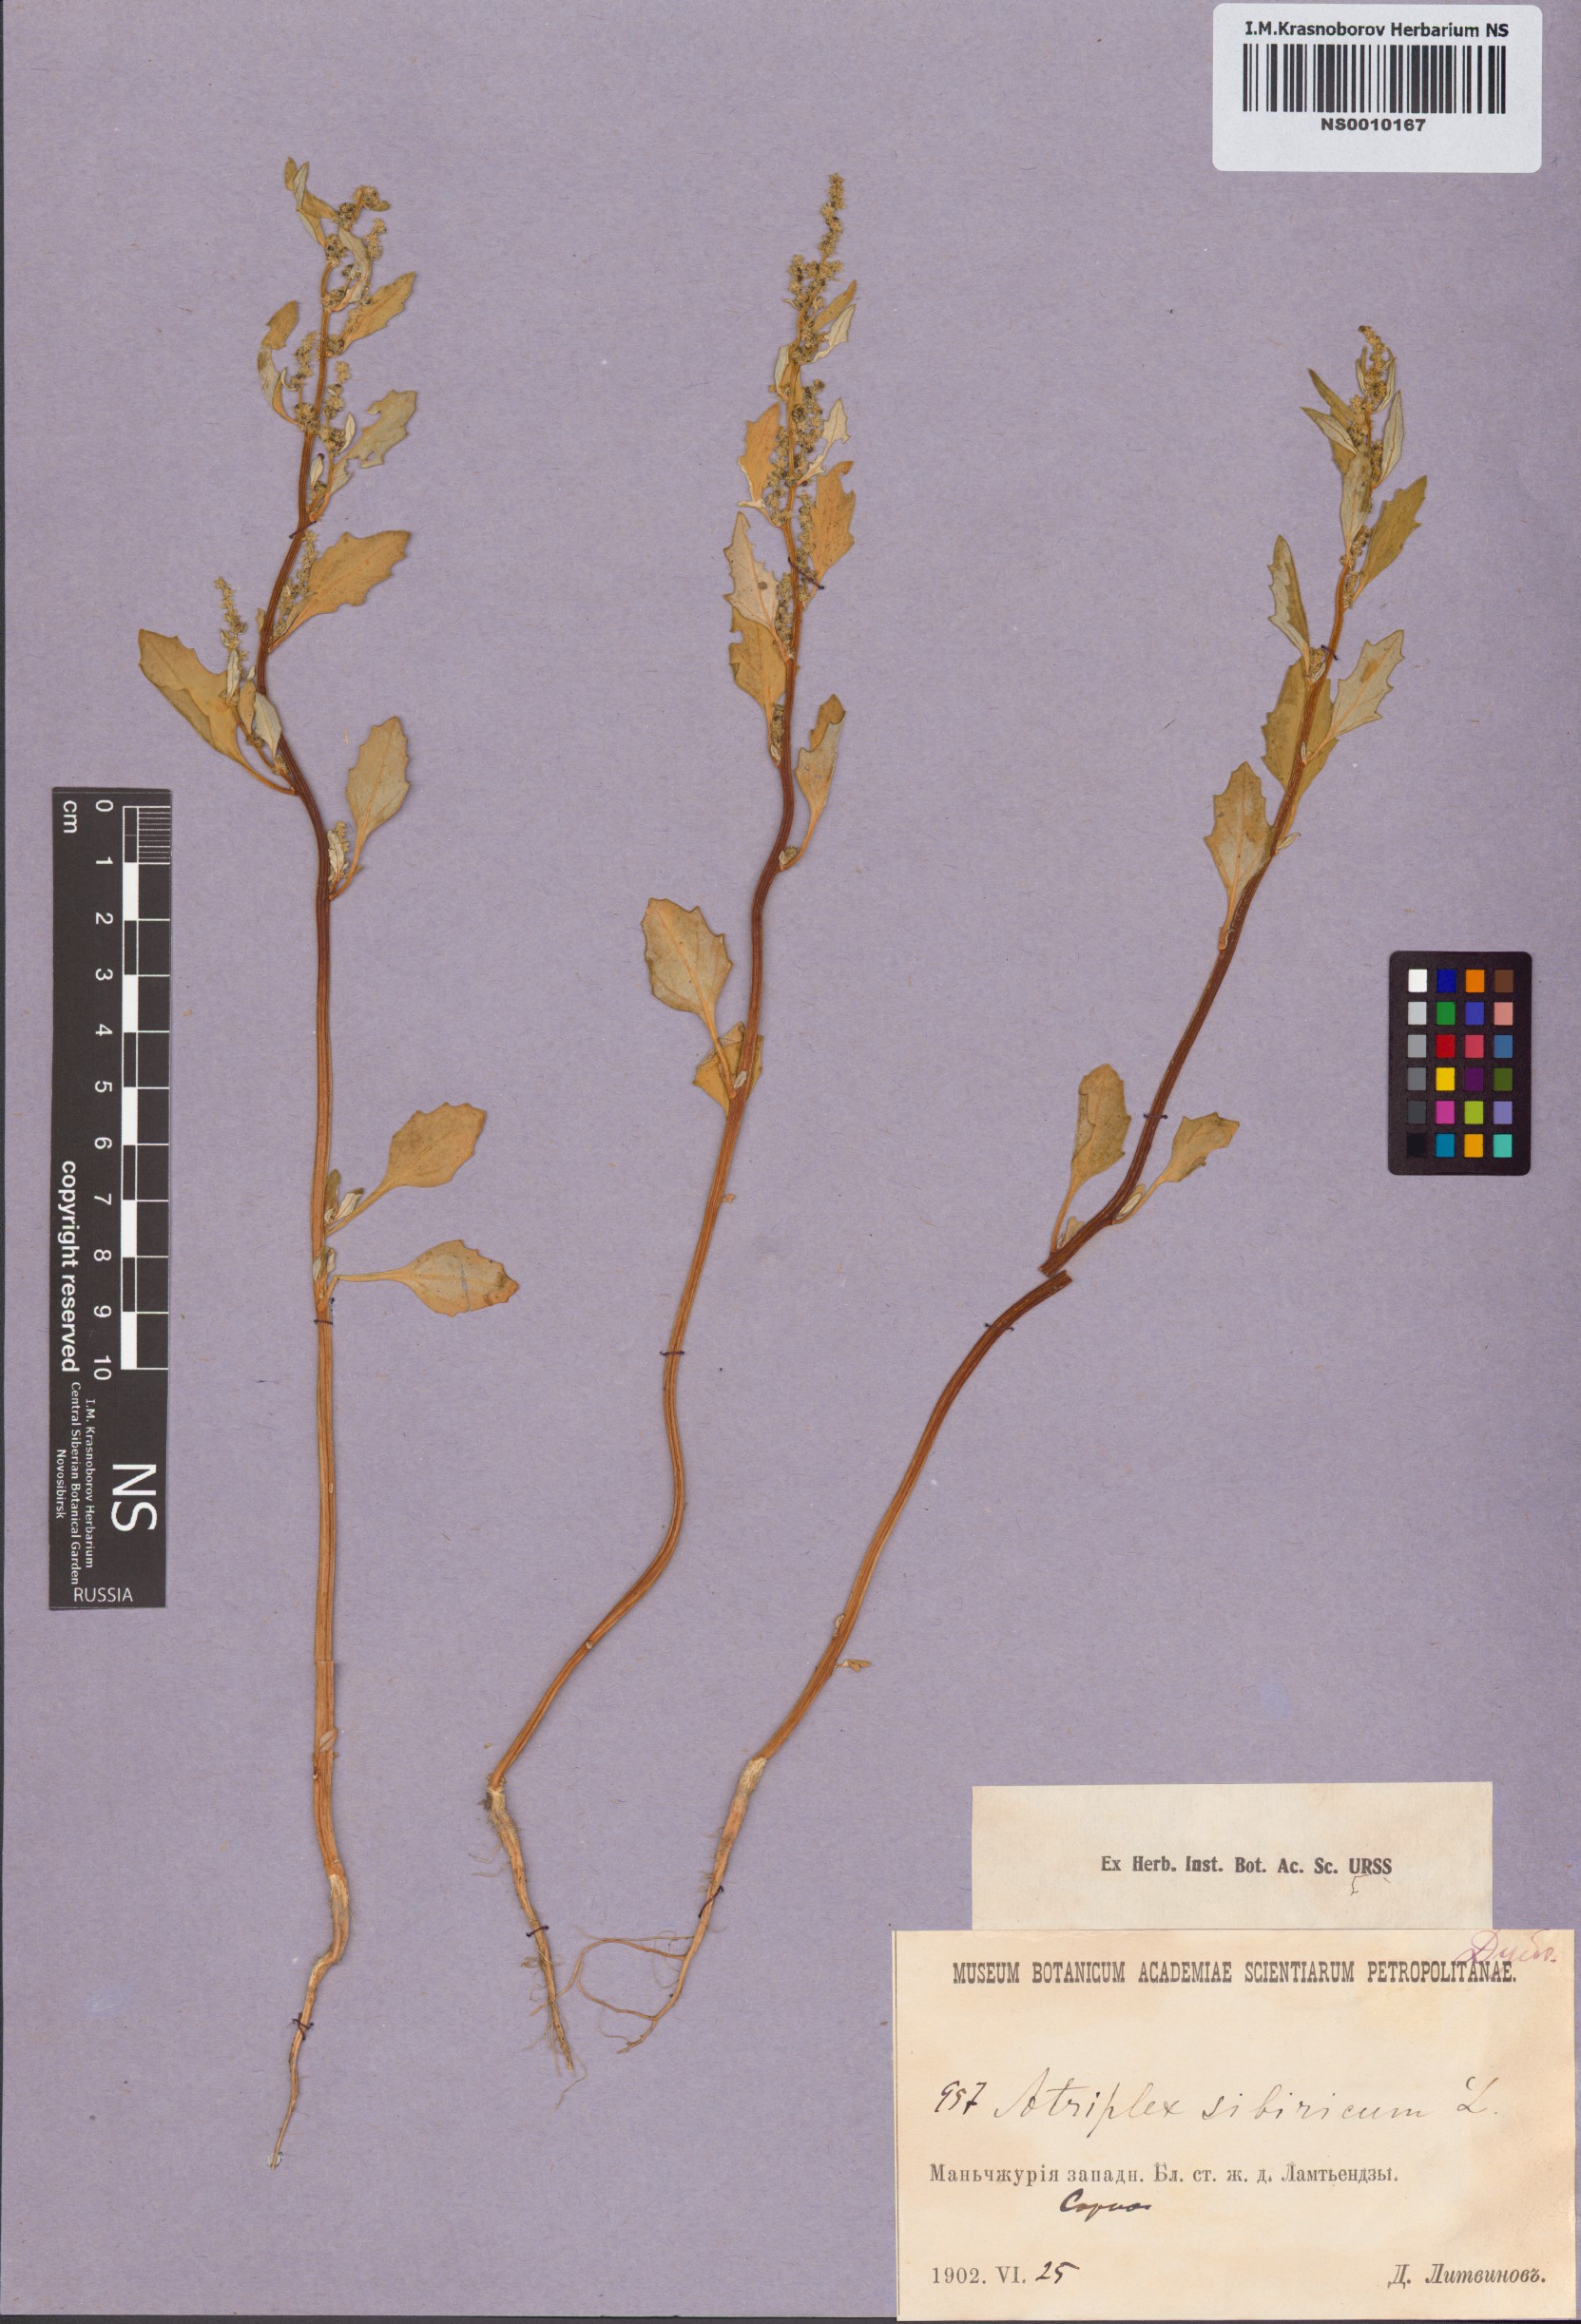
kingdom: Plantae
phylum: Tracheophyta
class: Magnoliopsida
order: Caryophyllales
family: Amaranthaceae
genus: Atriplex
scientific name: Atriplex sibirica
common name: Siberian saltbush
